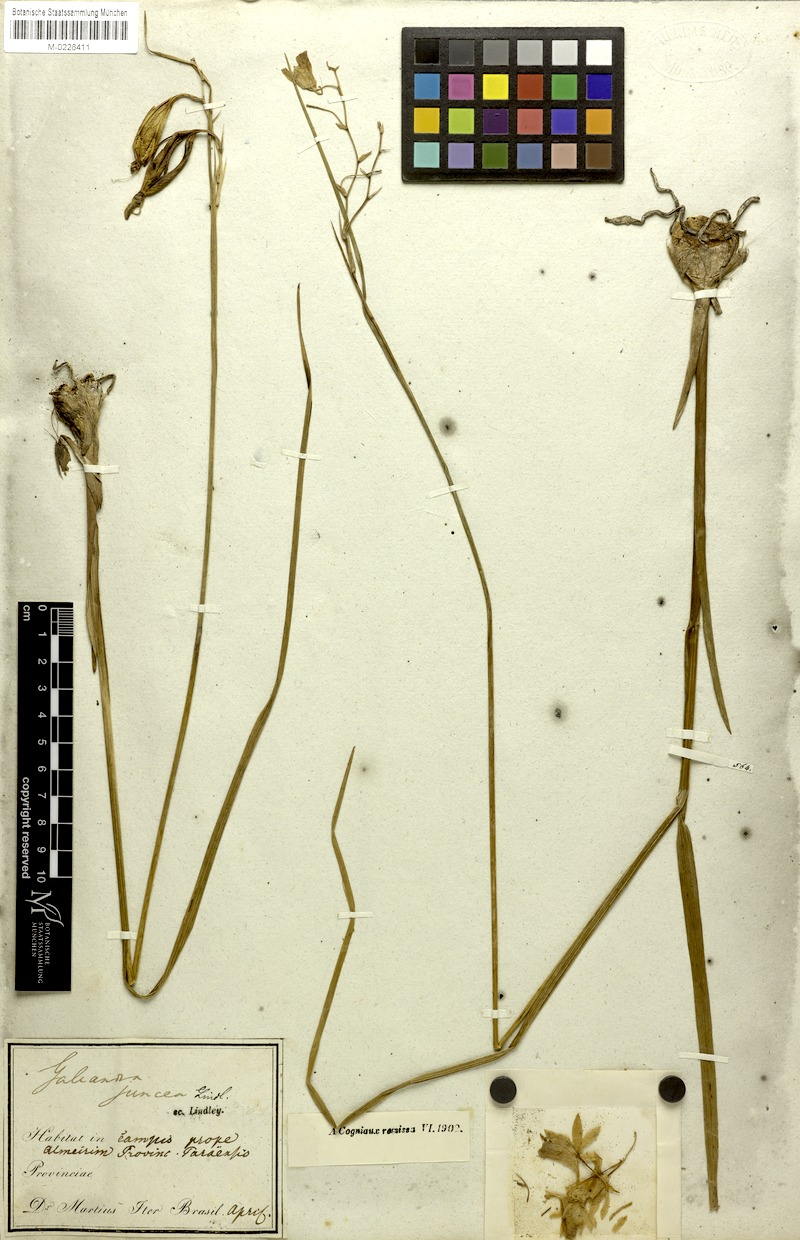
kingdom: Plantae
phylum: Tracheophyta
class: Liliopsida
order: Asparagales
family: Orchidaceae
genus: Galeandra
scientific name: Galeandra styllomisantha
